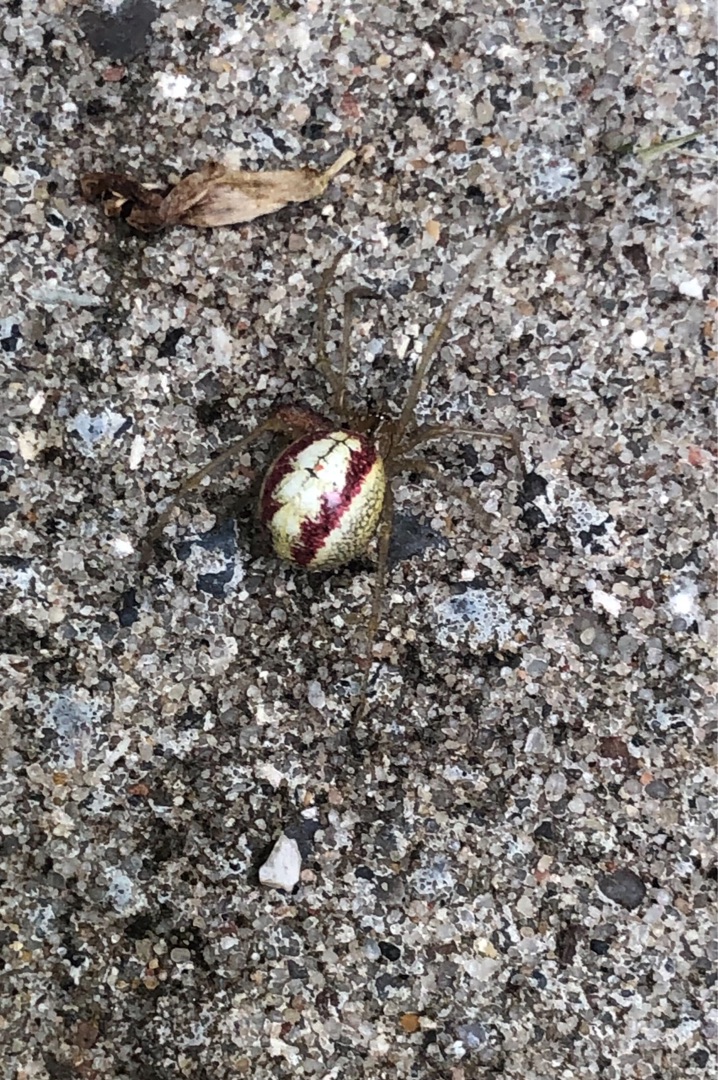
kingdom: Animalia
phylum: Arthropoda
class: Arachnida
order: Araneae
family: Theridiidae
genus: Enoplognatha
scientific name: Enoplognatha
